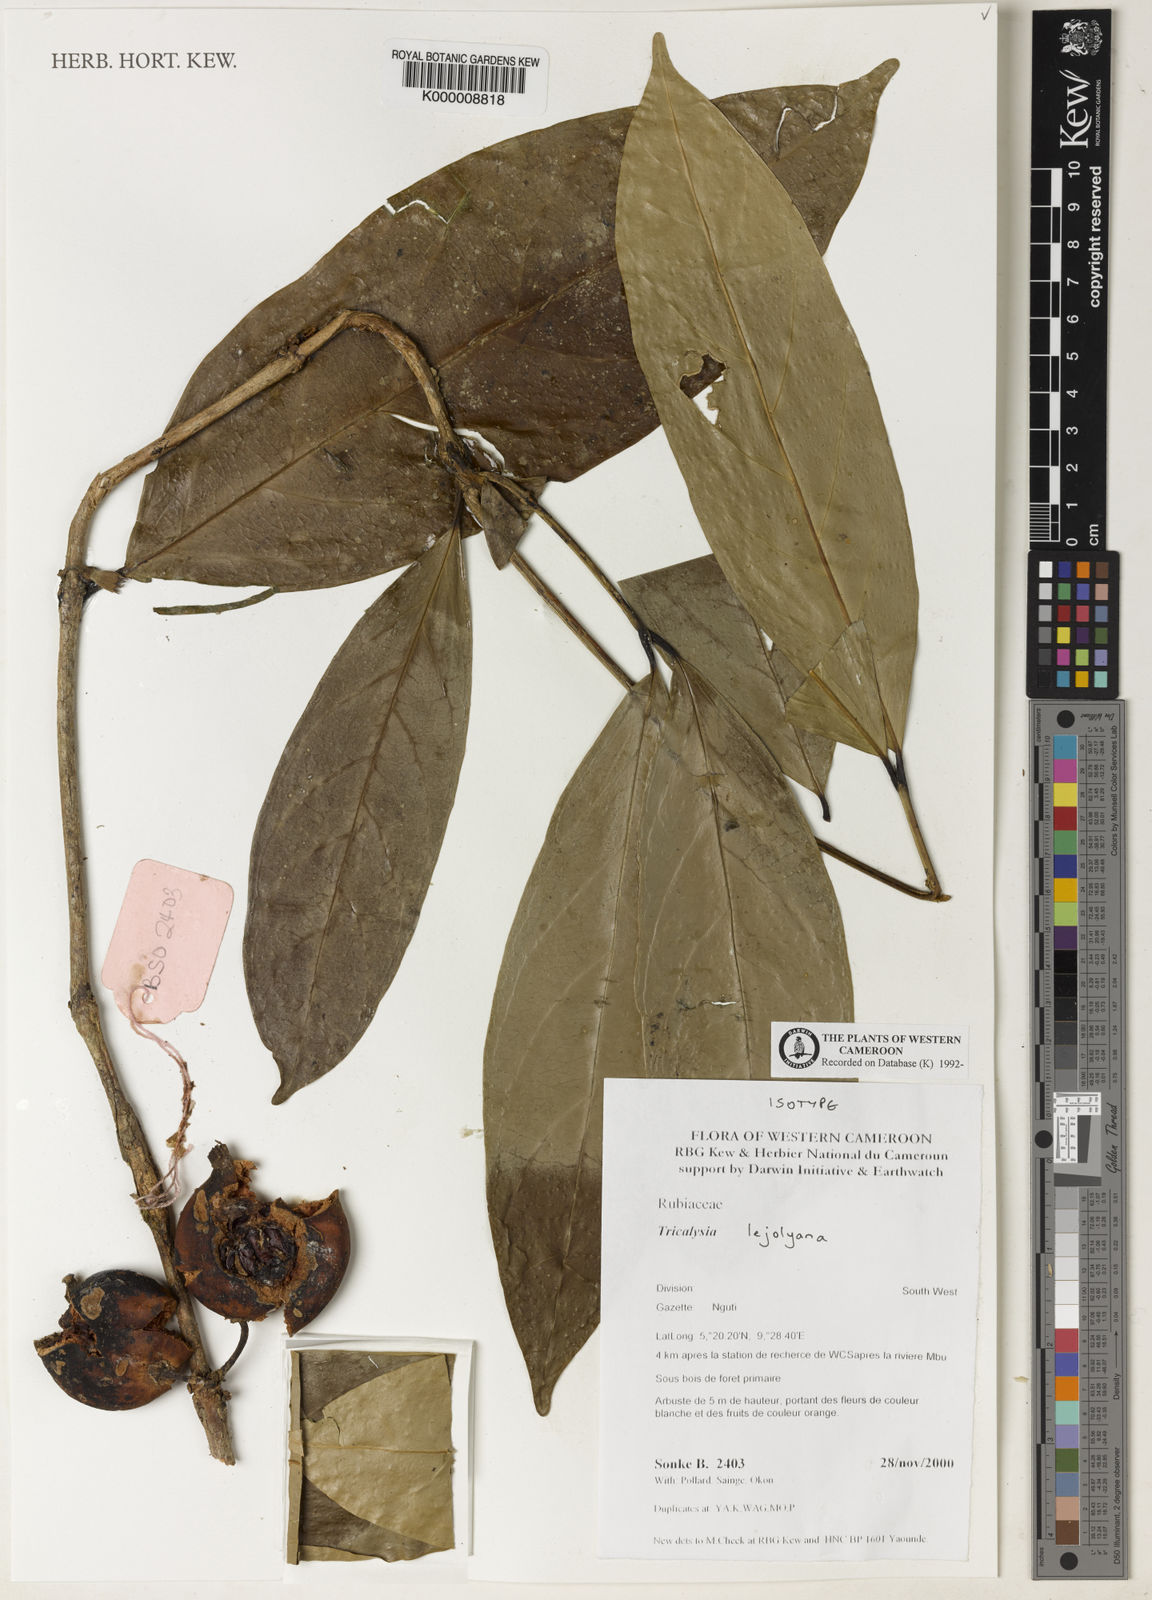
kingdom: Plantae
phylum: Tracheophyta
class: Magnoliopsida
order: Gentianales
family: Rubiaceae
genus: Tricalysia
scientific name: Tricalysia
